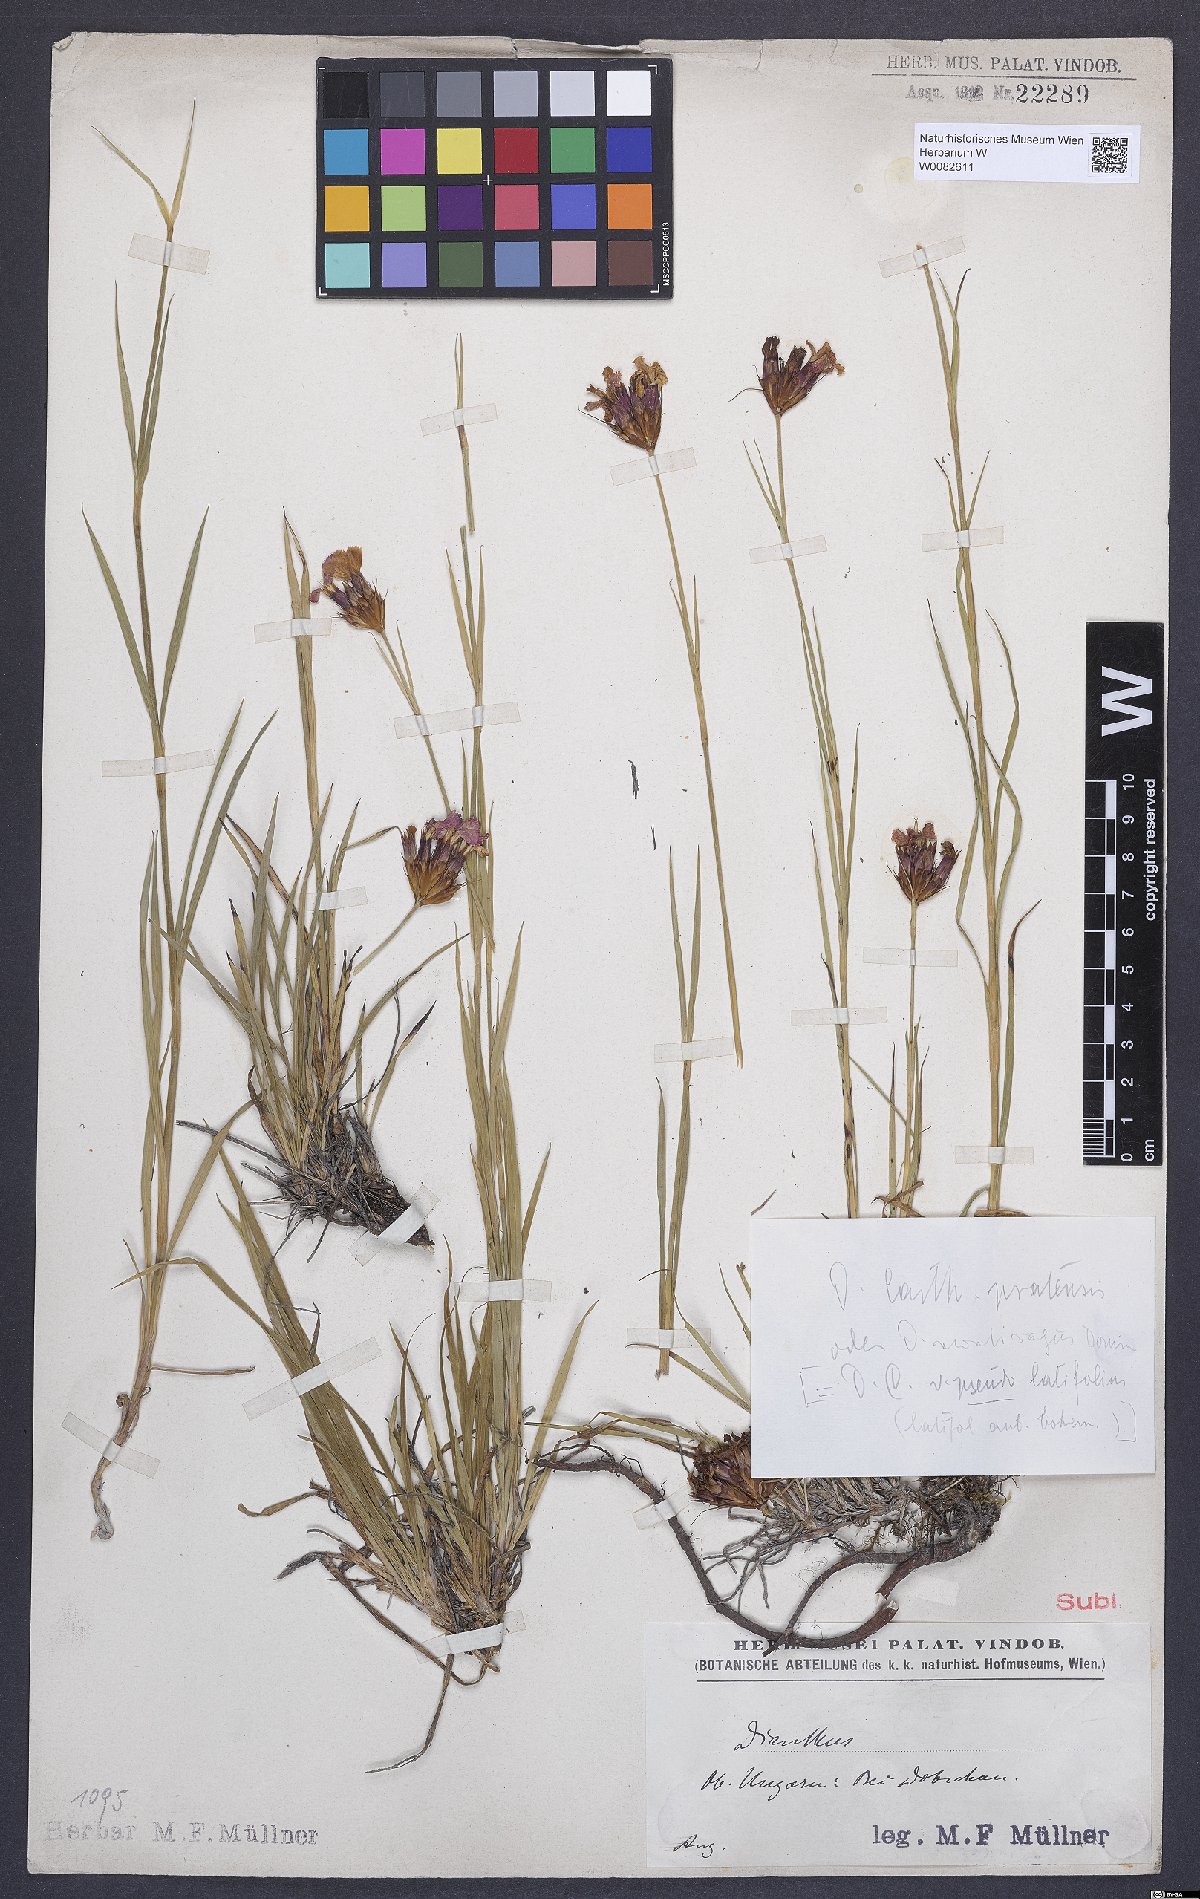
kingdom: Plantae
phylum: Tracheophyta
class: Magnoliopsida
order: Caryophyllales
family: Caryophyllaceae
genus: Dianthus
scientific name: Dianthus carthusianorum
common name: Carthusian pink
